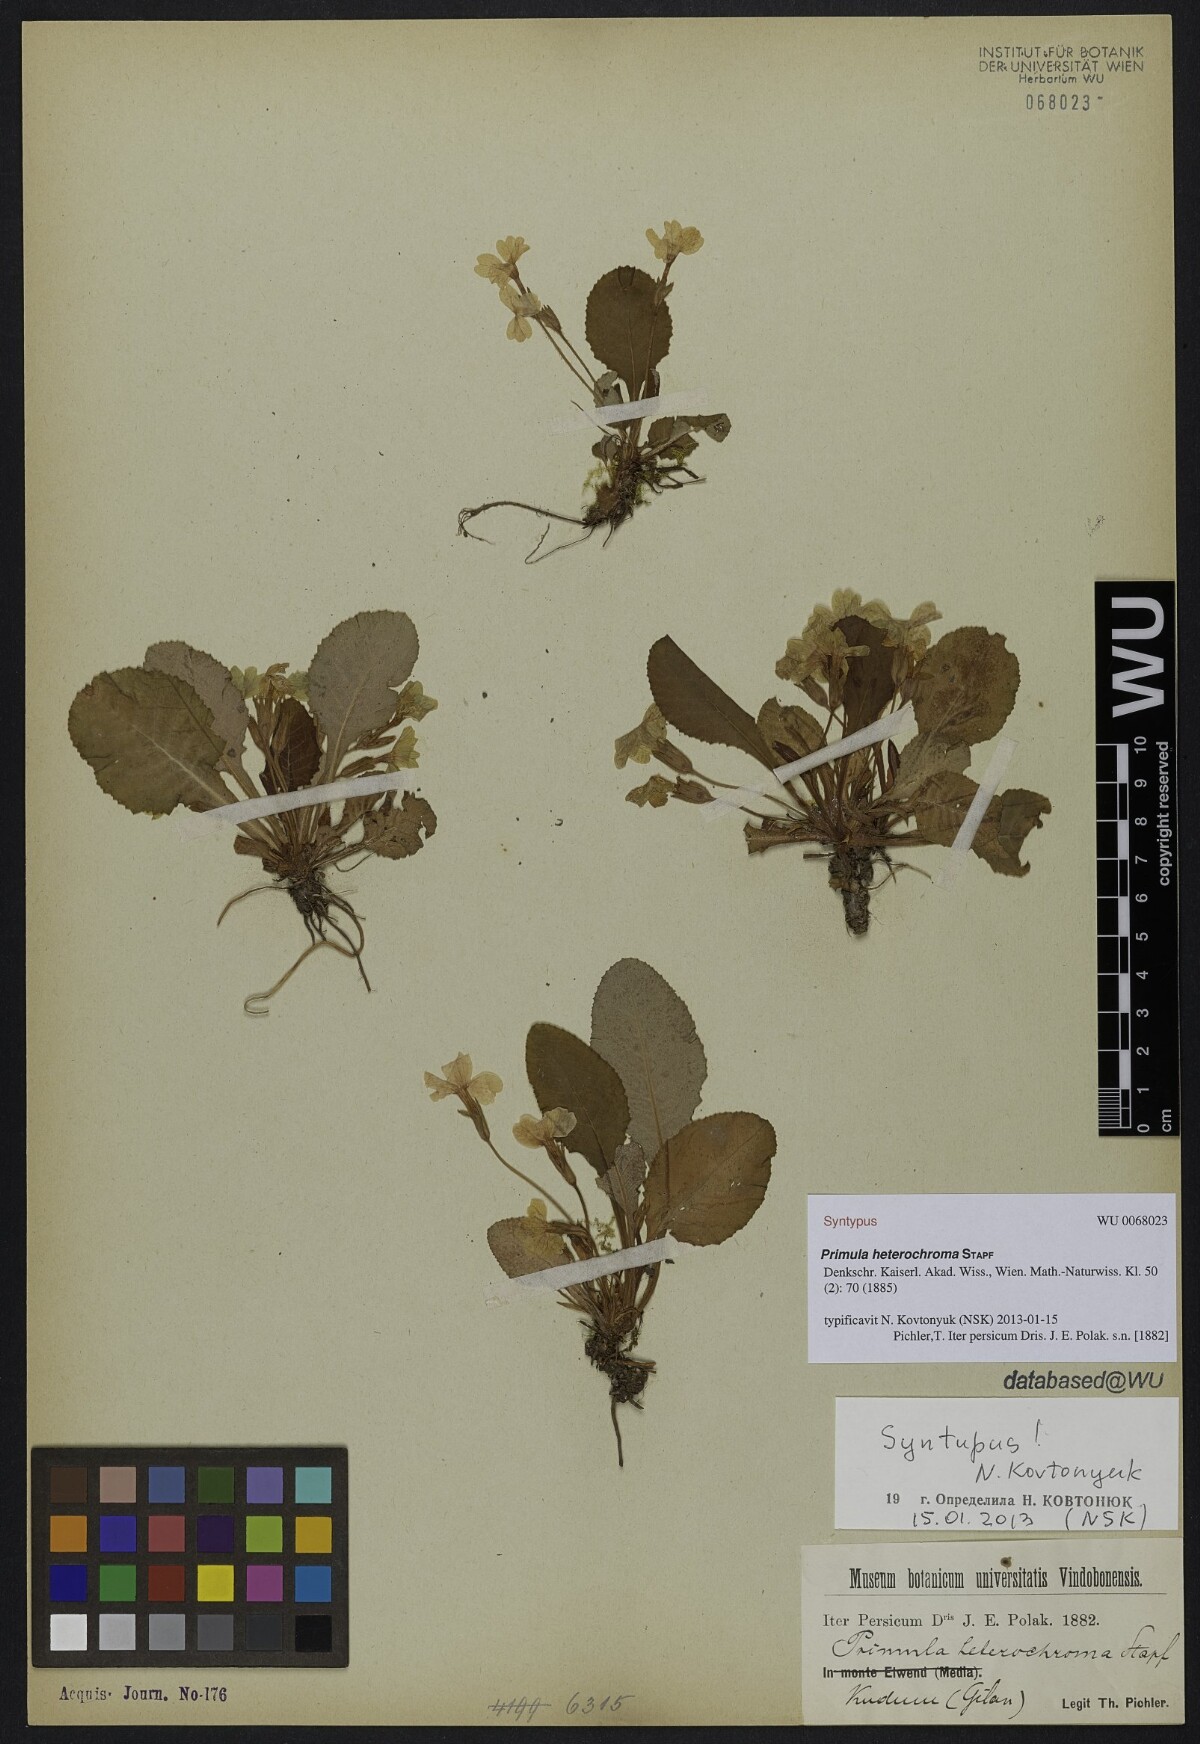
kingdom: Plantae
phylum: Tracheophyta
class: Magnoliopsida
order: Ericales
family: Primulaceae
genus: Primula
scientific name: Primula heterochroma
